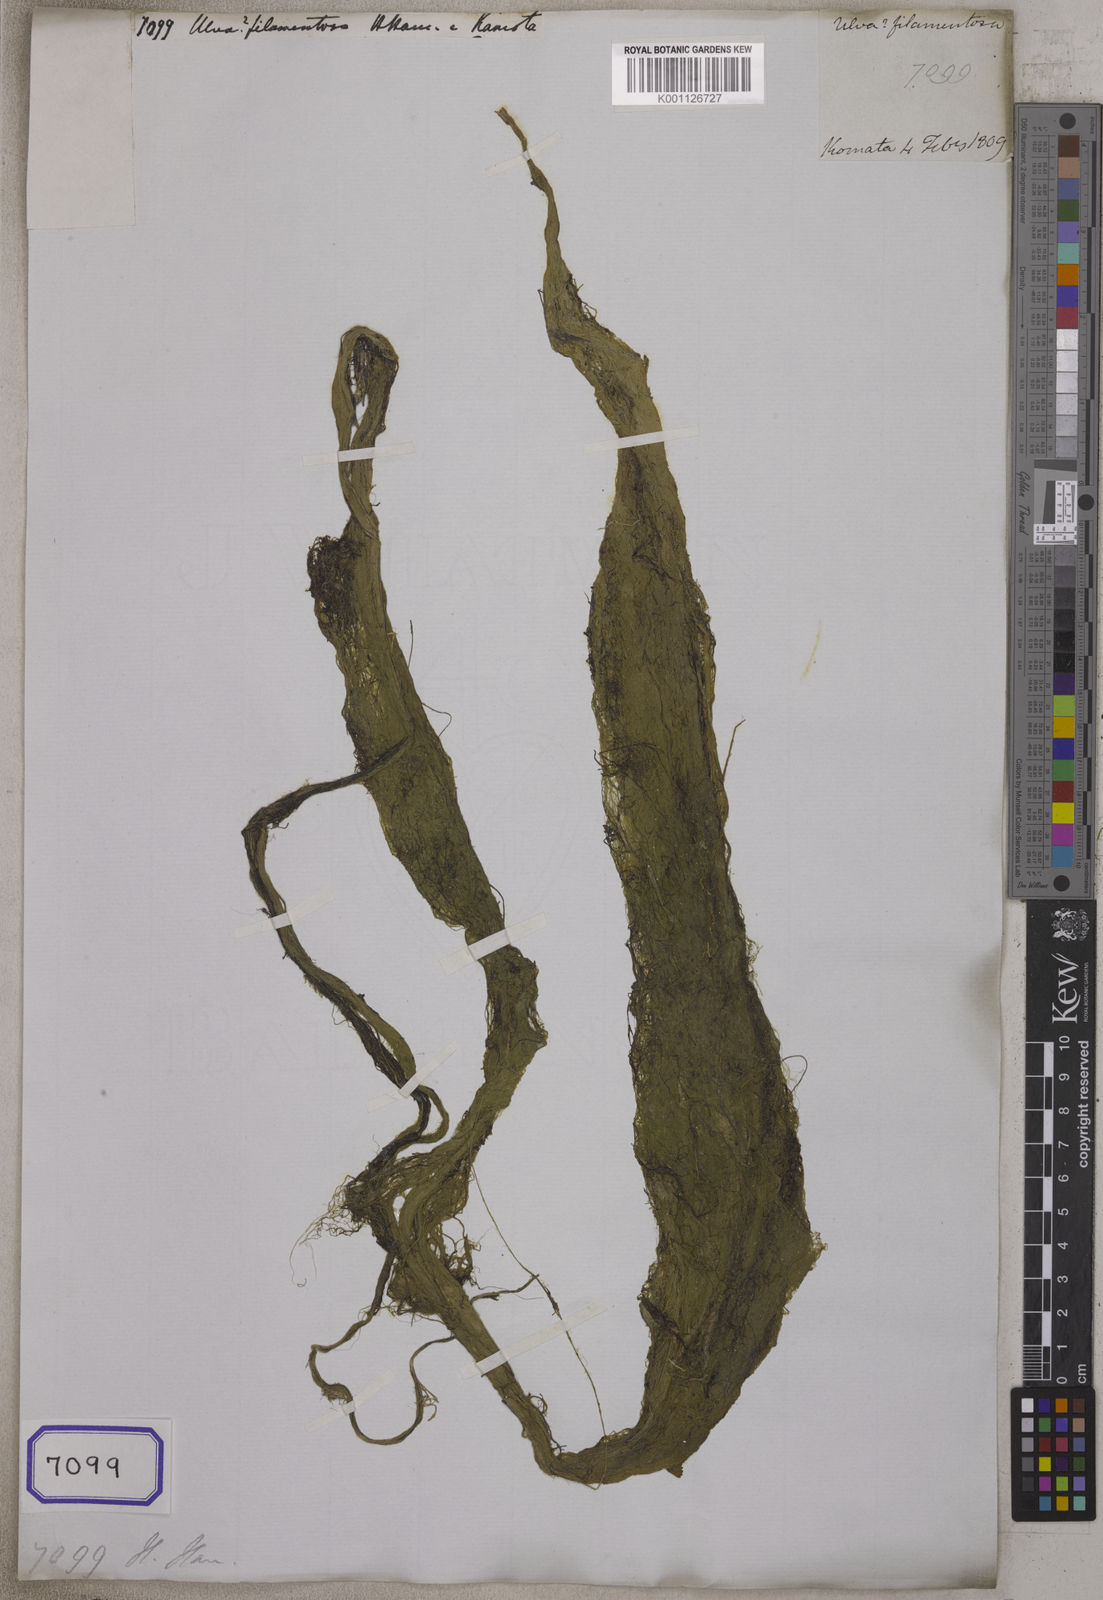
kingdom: Plantae
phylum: Tracheophyta
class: Liliopsida
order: Poales
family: Cyperaceae
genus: Ulva
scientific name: Ulva
